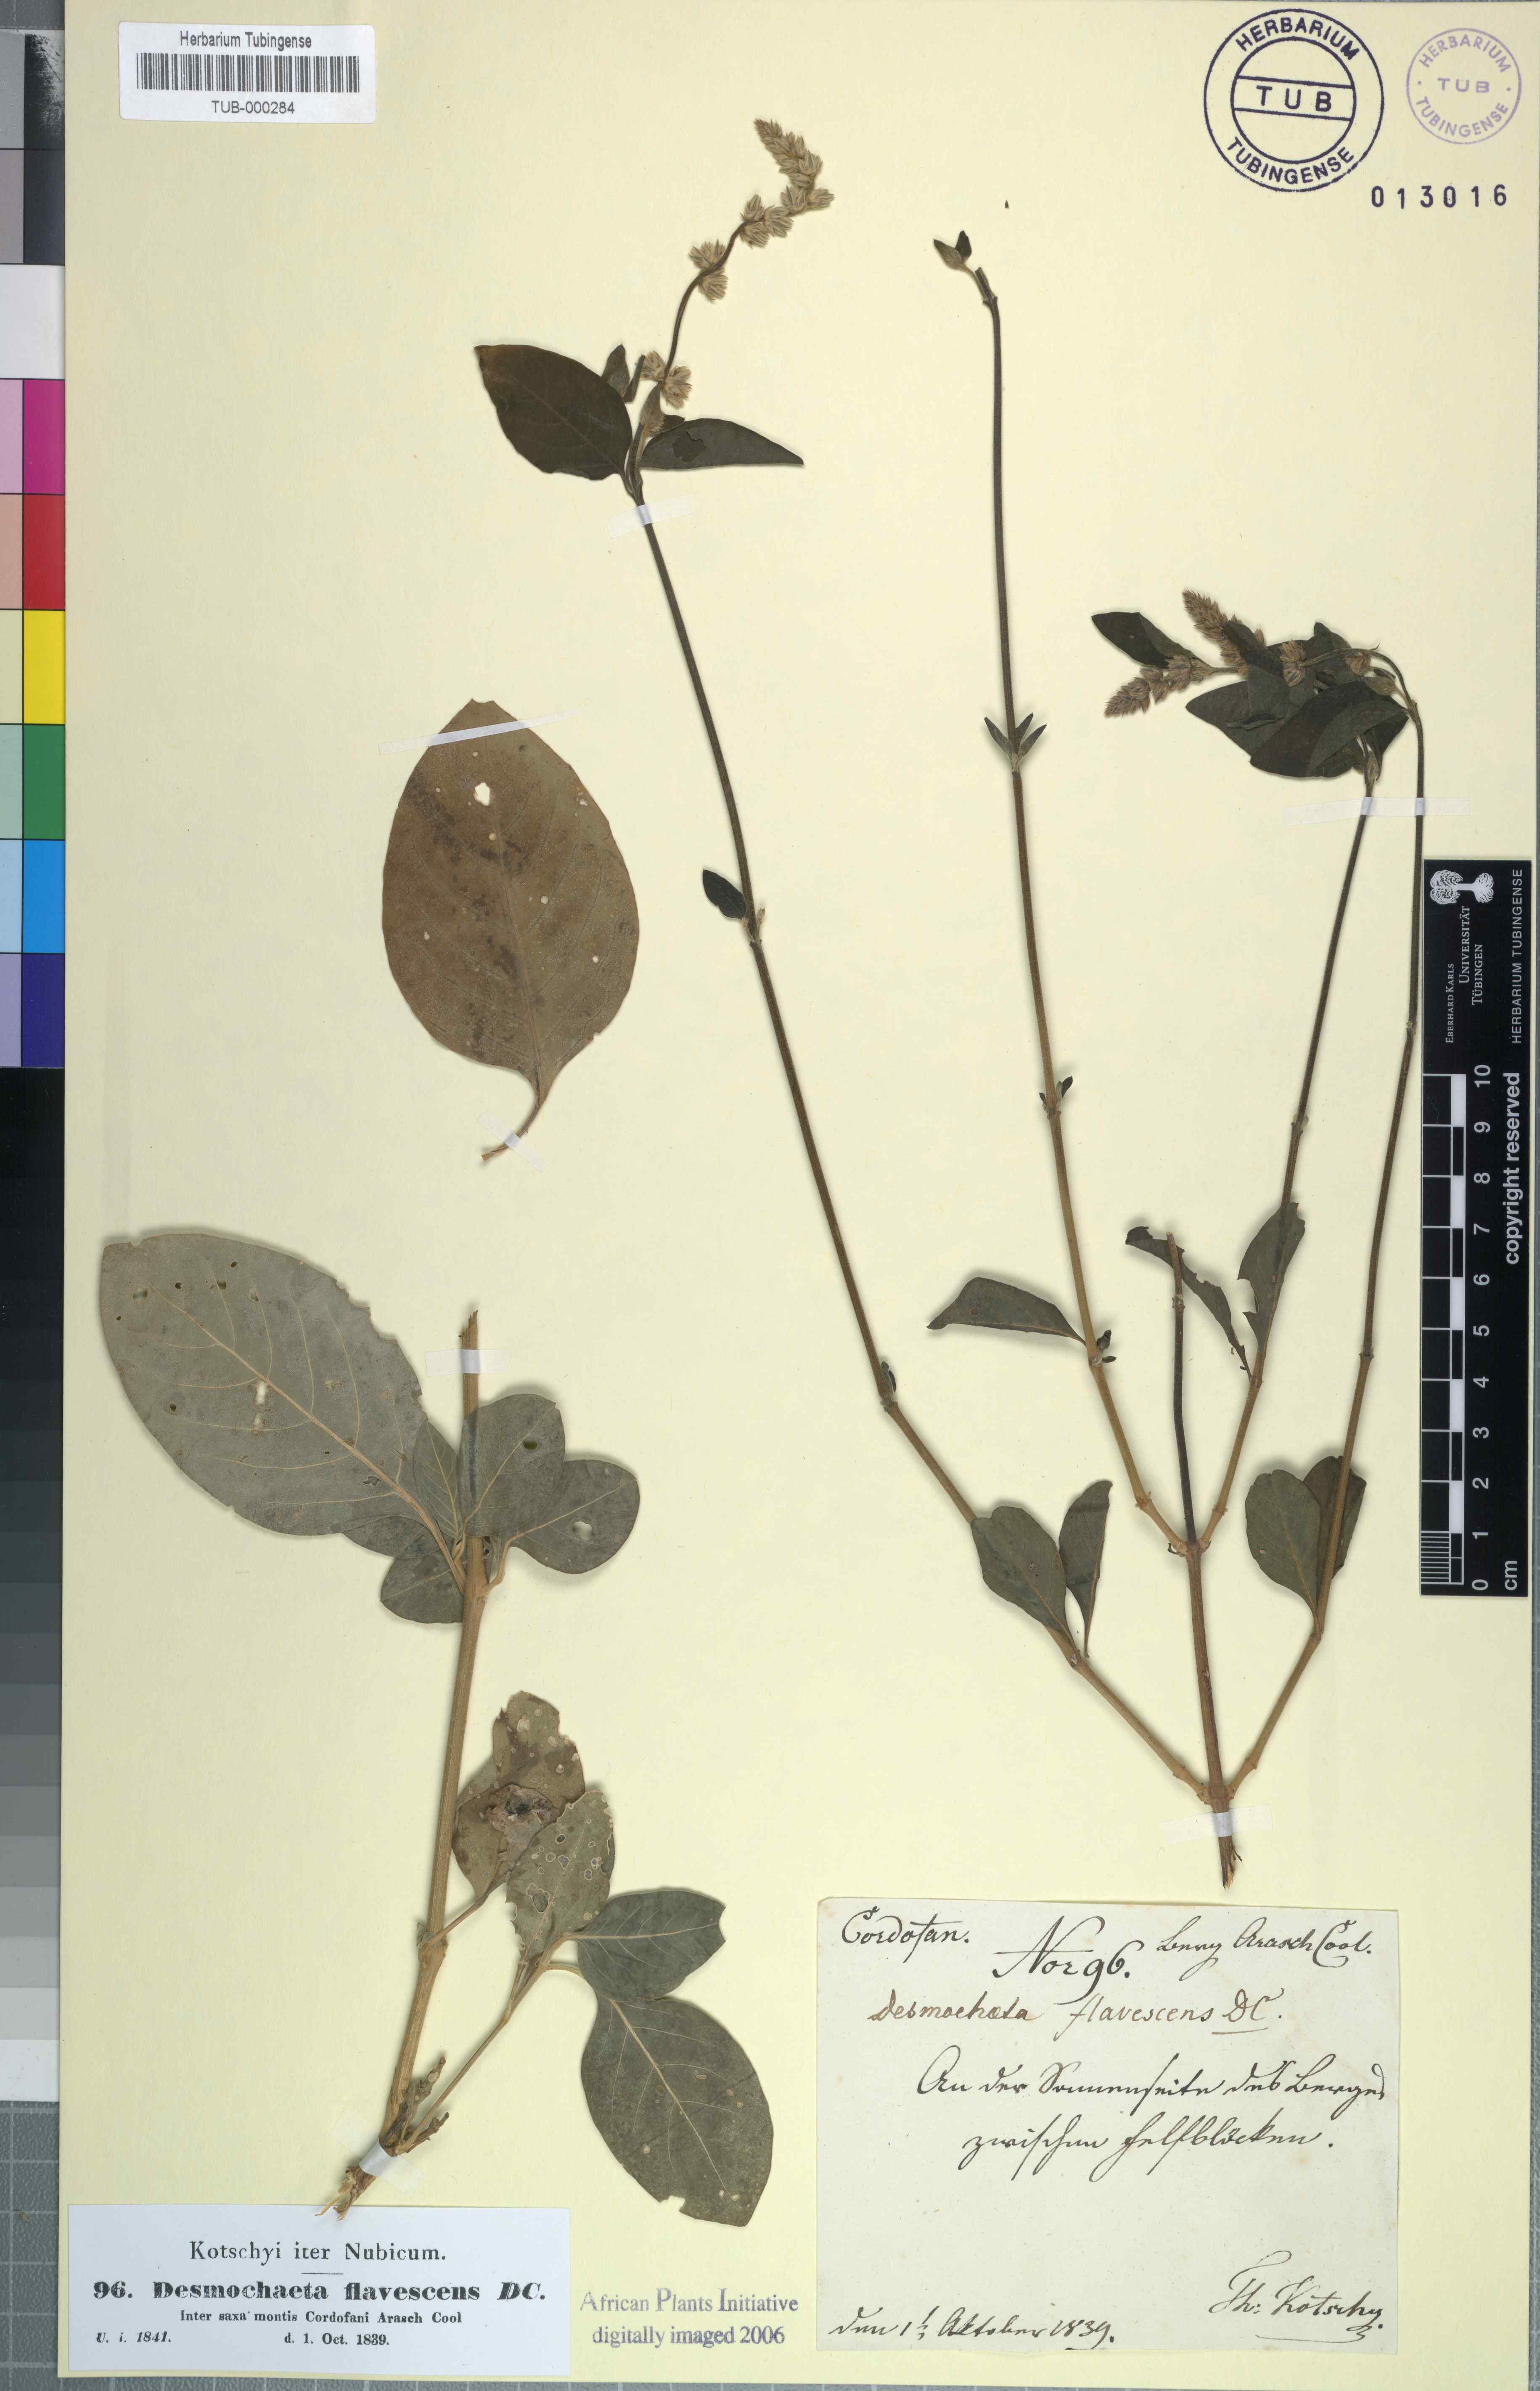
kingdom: Plantae
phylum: Tracheophyta
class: Magnoliopsida
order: Caryophyllales
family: Amaranthaceae
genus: Pupalia
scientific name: Pupalia lappacea
